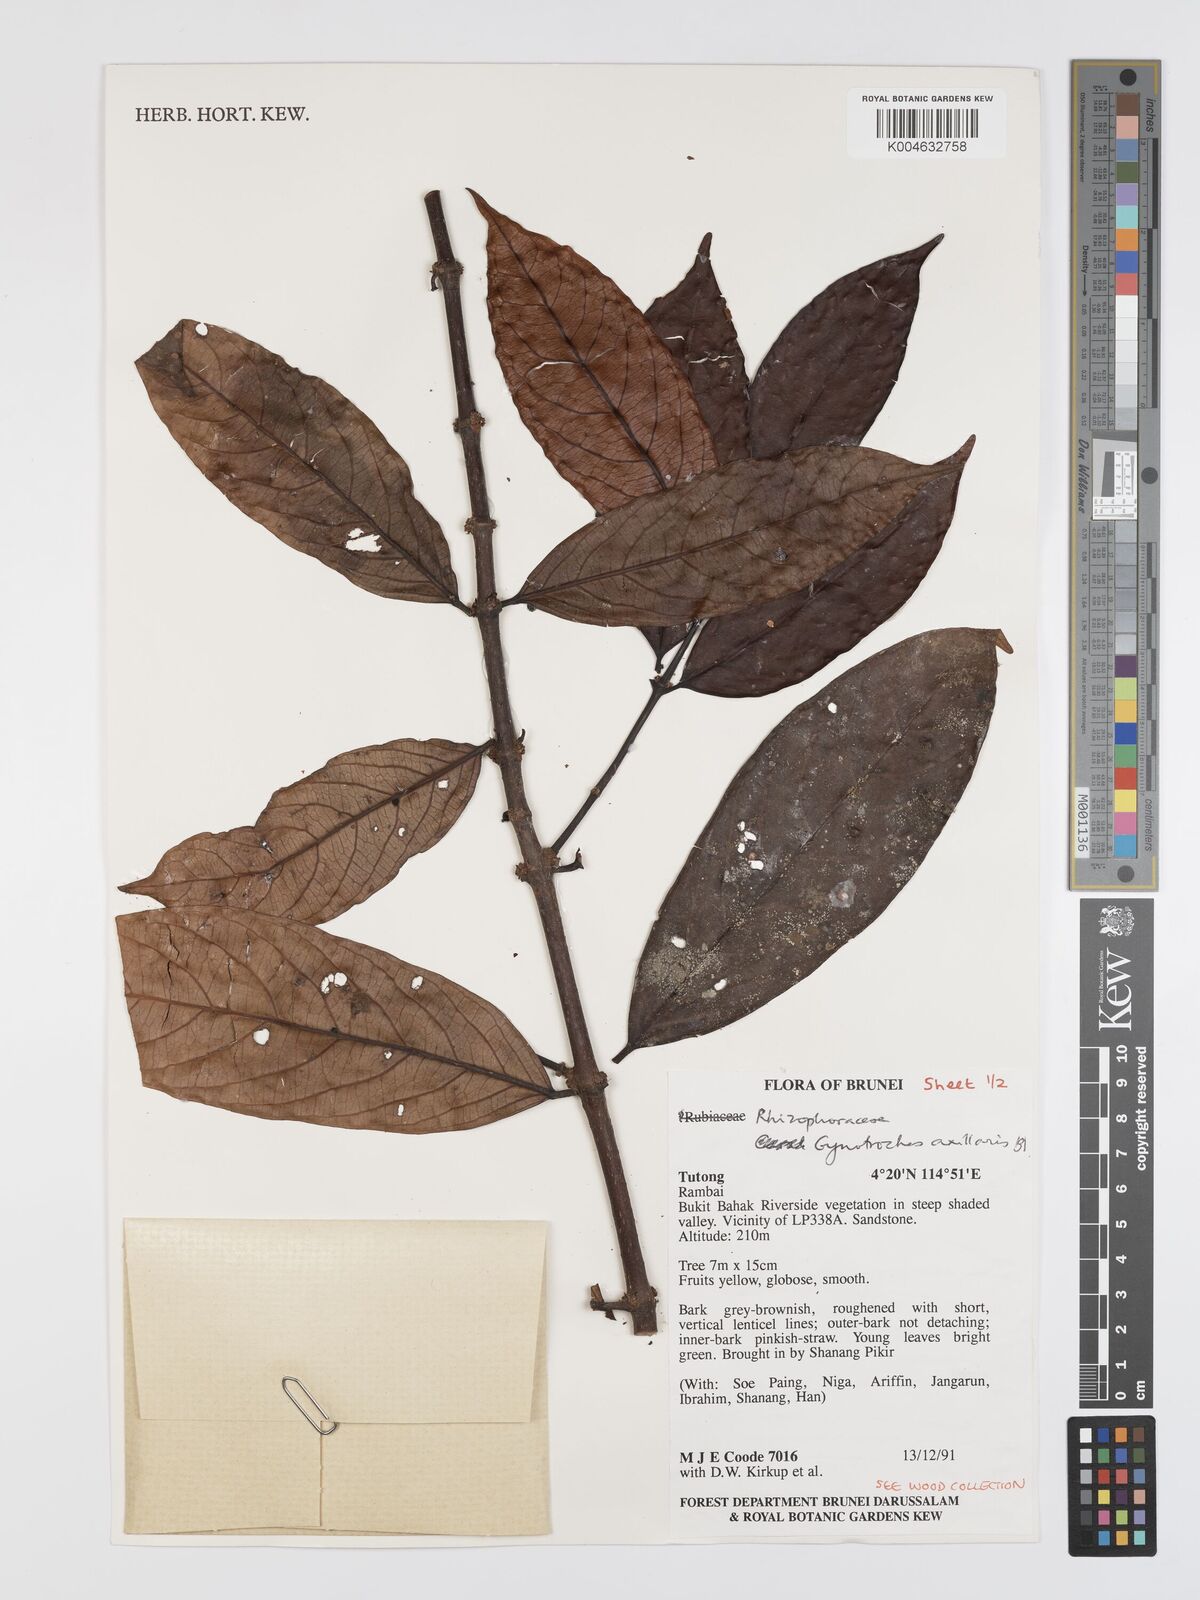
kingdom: Plantae
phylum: Tracheophyta
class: Magnoliopsida
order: Malpighiales
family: Rhizophoraceae
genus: Gynotroches
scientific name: Gynotroches axillaris
